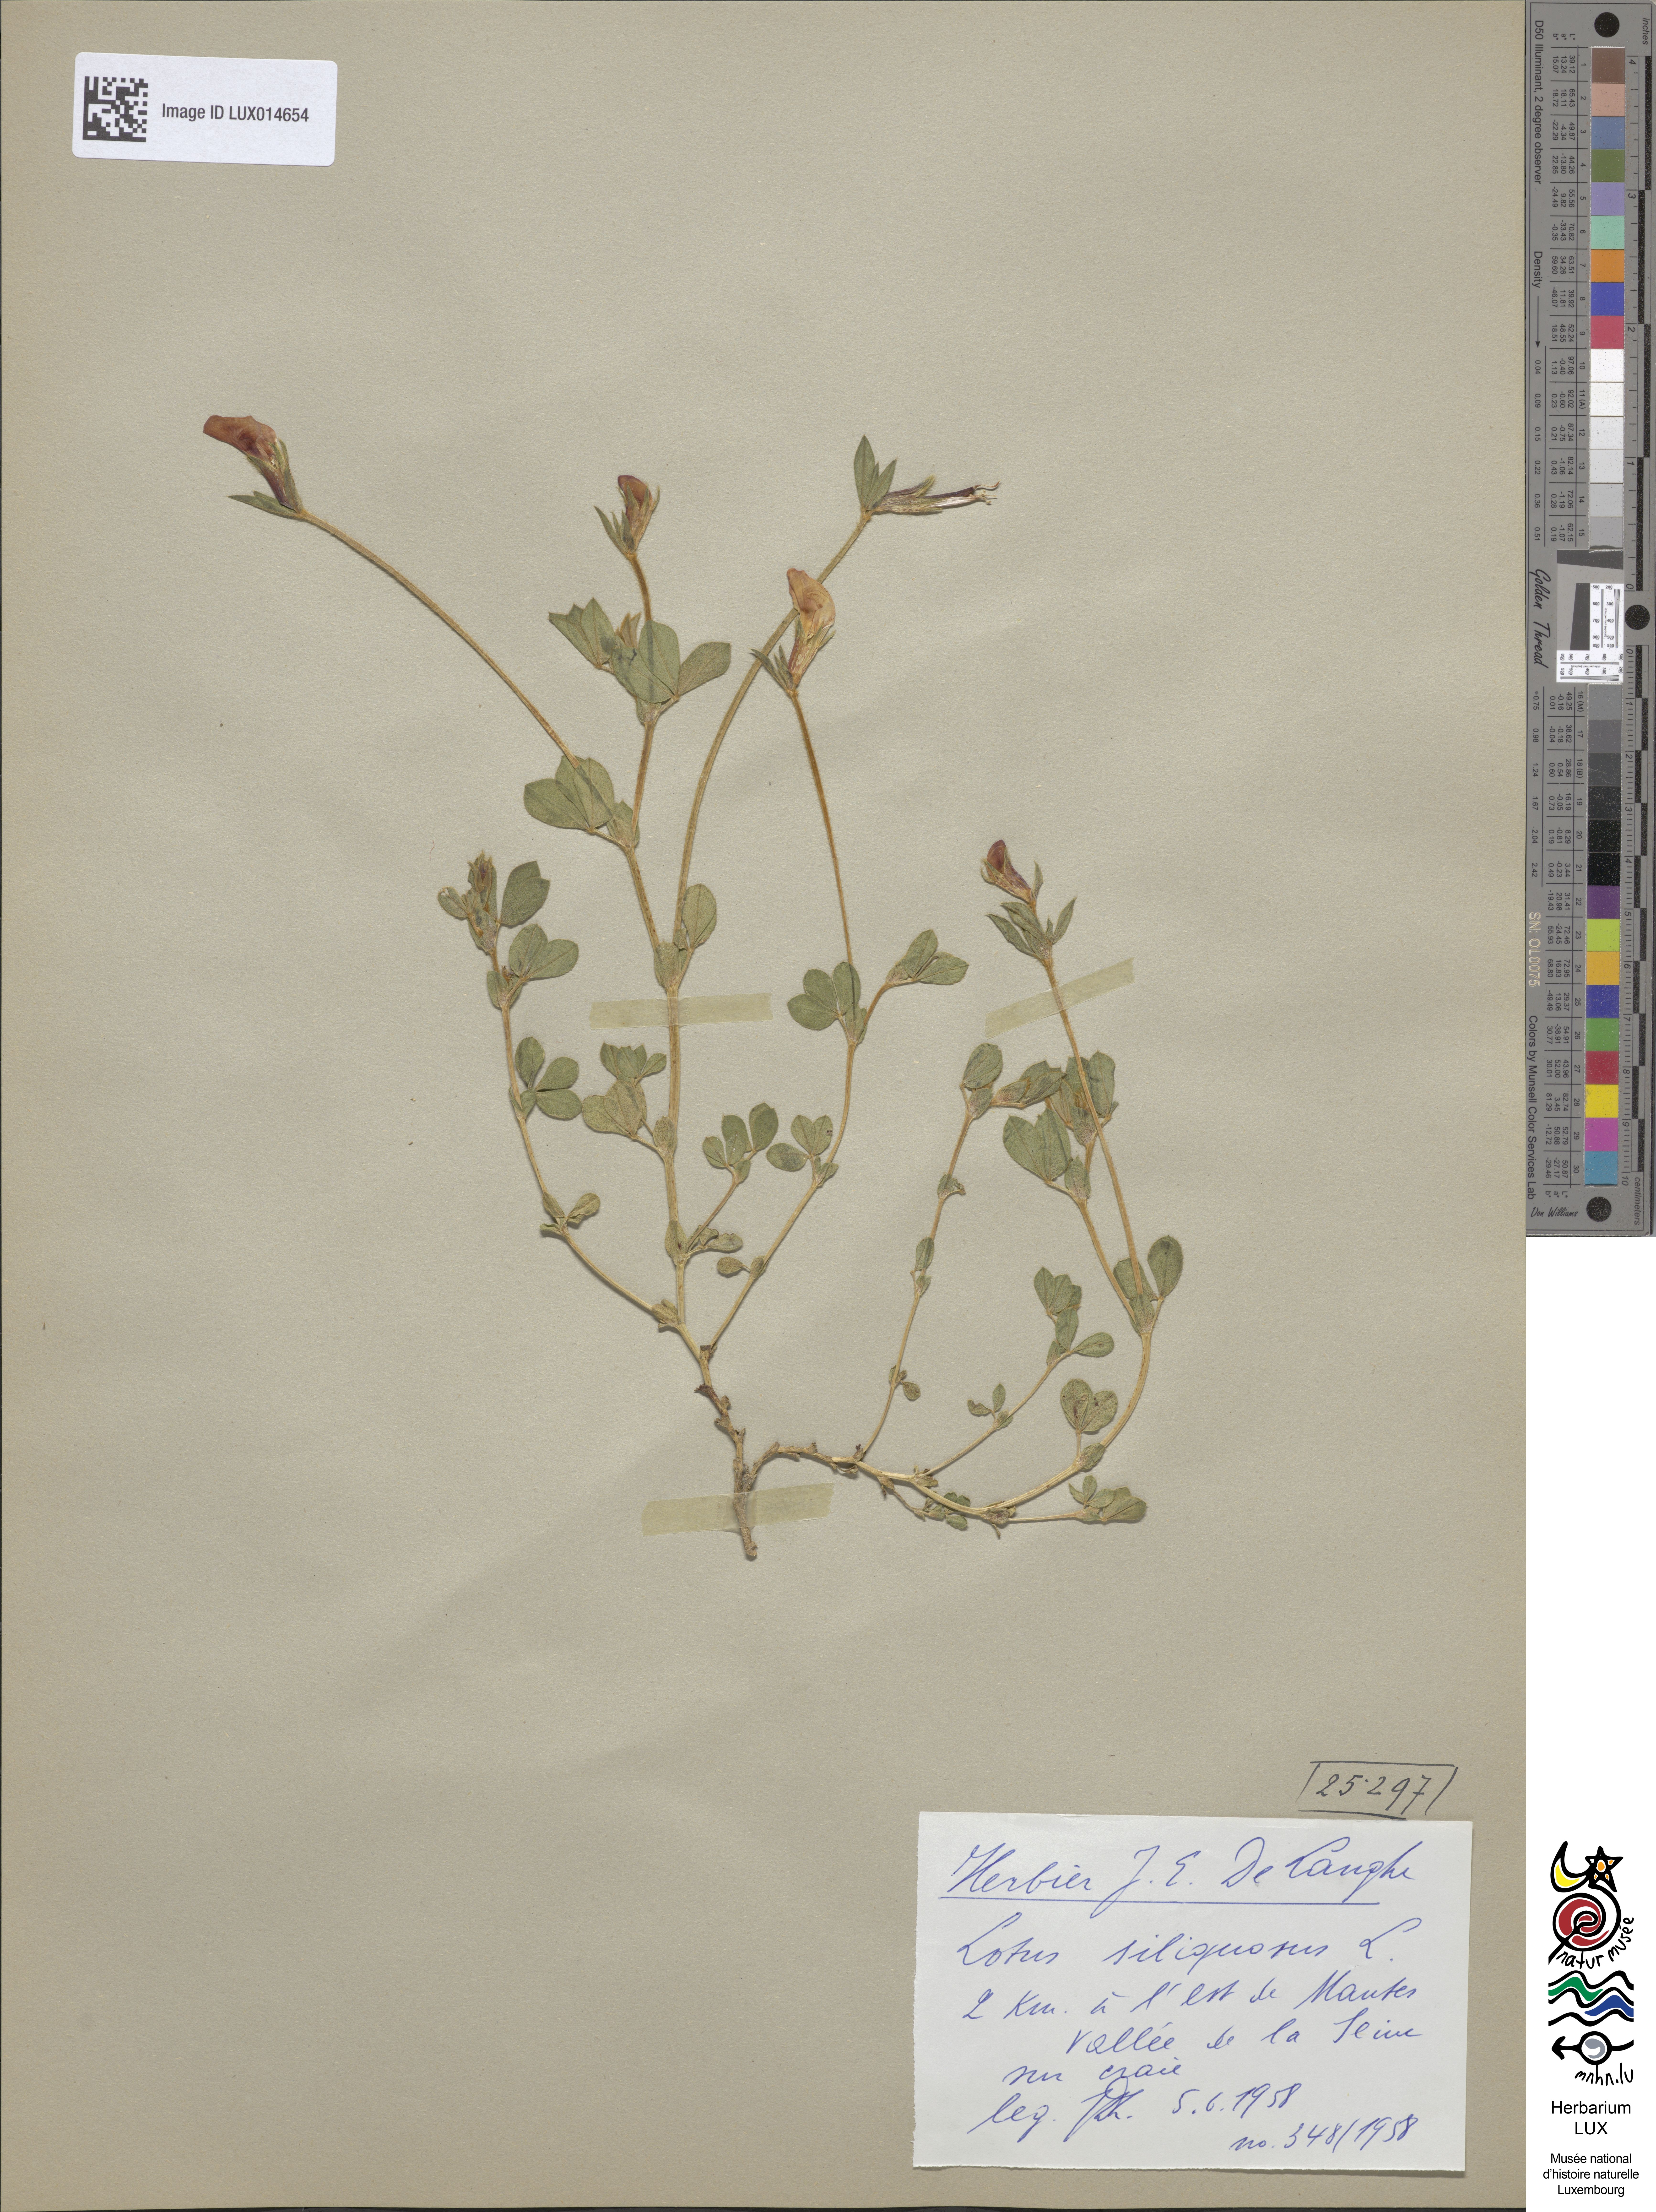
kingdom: Plantae
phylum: Tracheophyta
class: Magnoliopsida
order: Fabales
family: Fabaceae
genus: Lotus
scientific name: Lotus maritimus
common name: Dragon's-teeth
